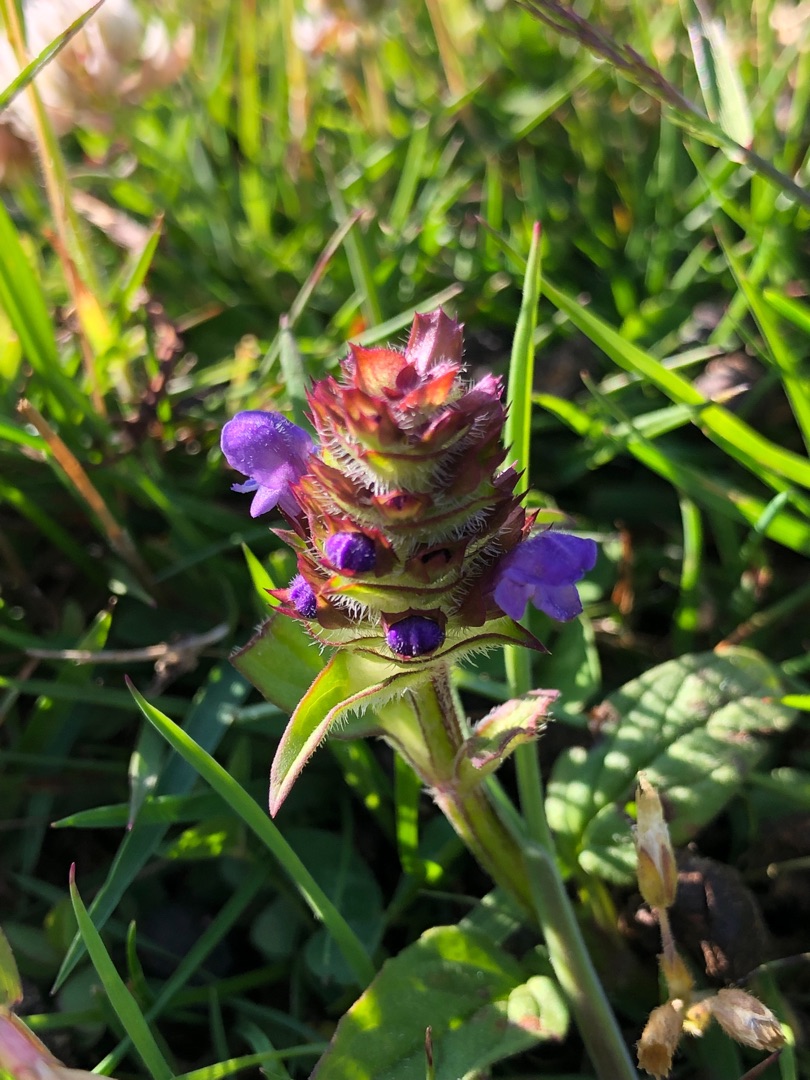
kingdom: Plantae
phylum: Tracheophyta
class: Magnoliopsida
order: Lamiales
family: Lamiaceae
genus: Prunella
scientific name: Prunella vulgaris
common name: Almindelig brunelle
